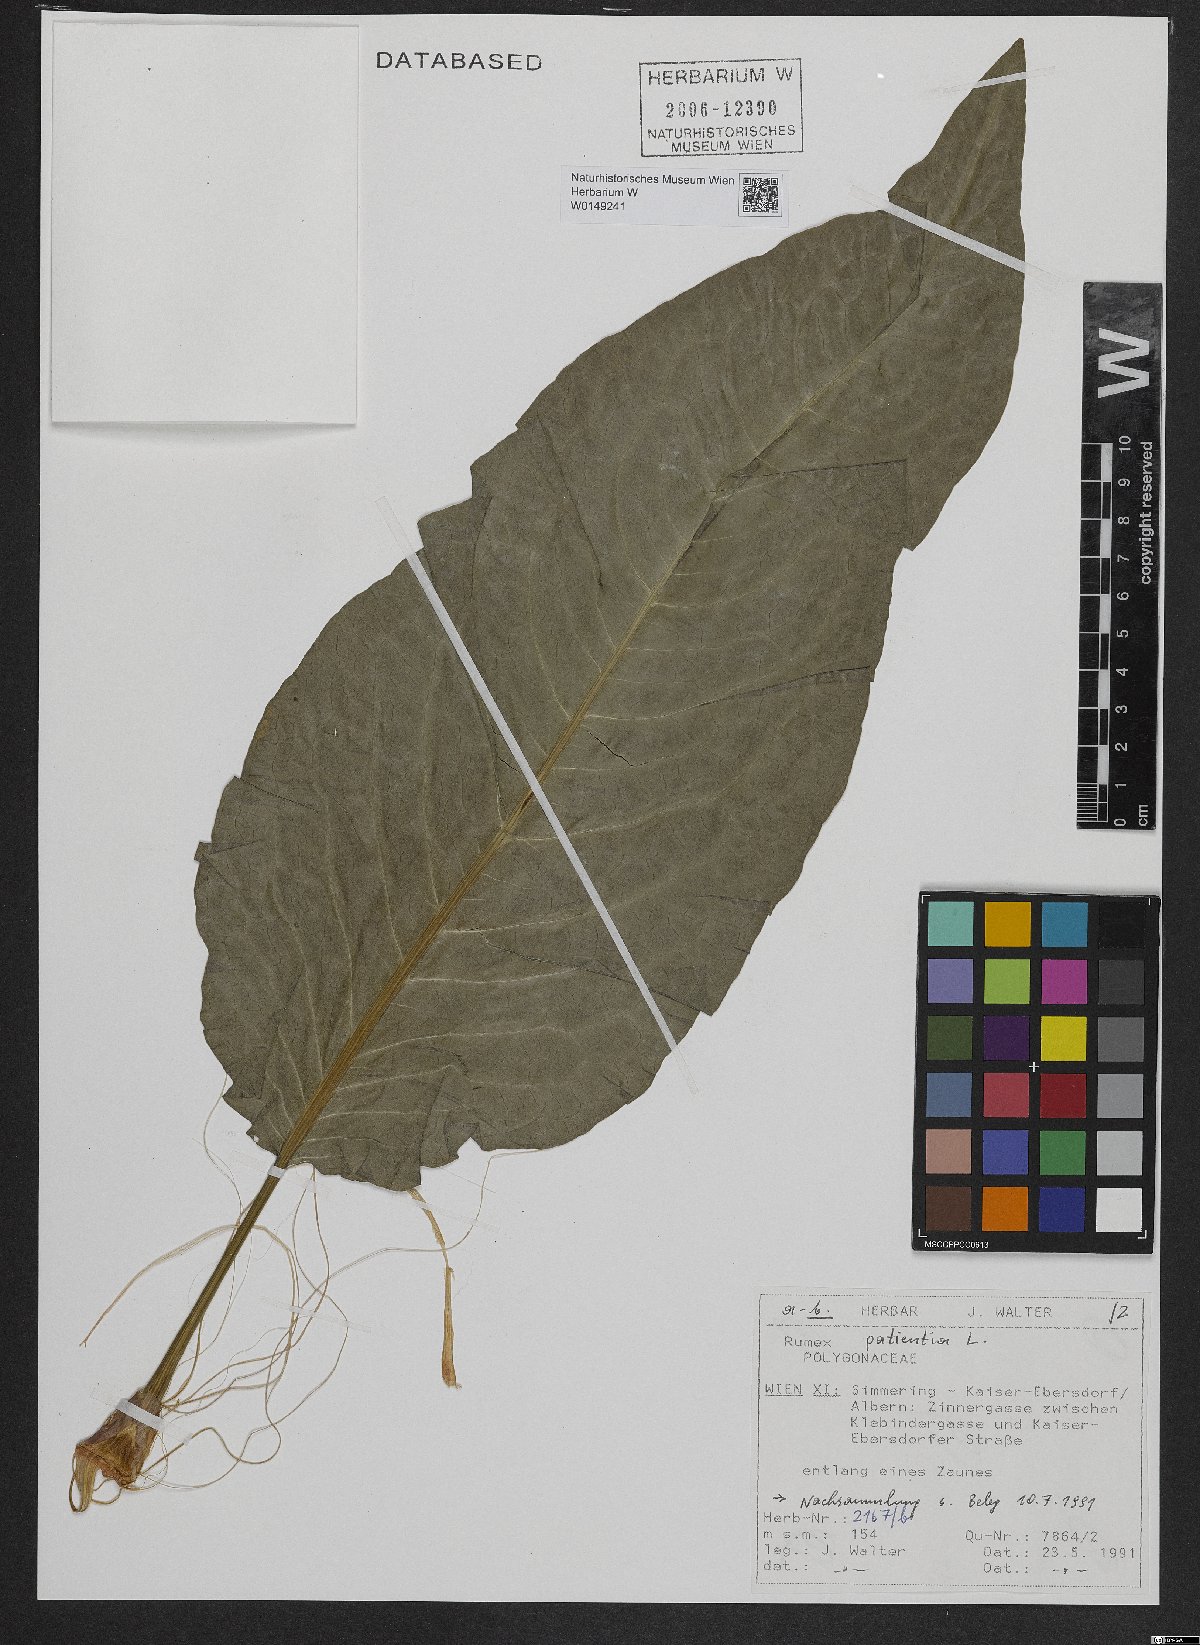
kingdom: Plantae
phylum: Tracheophyta
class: Magnoliopsida
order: Caryophyllales
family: Polygonaceae
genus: Rumex
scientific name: Rumex patientia
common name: Patience dock
